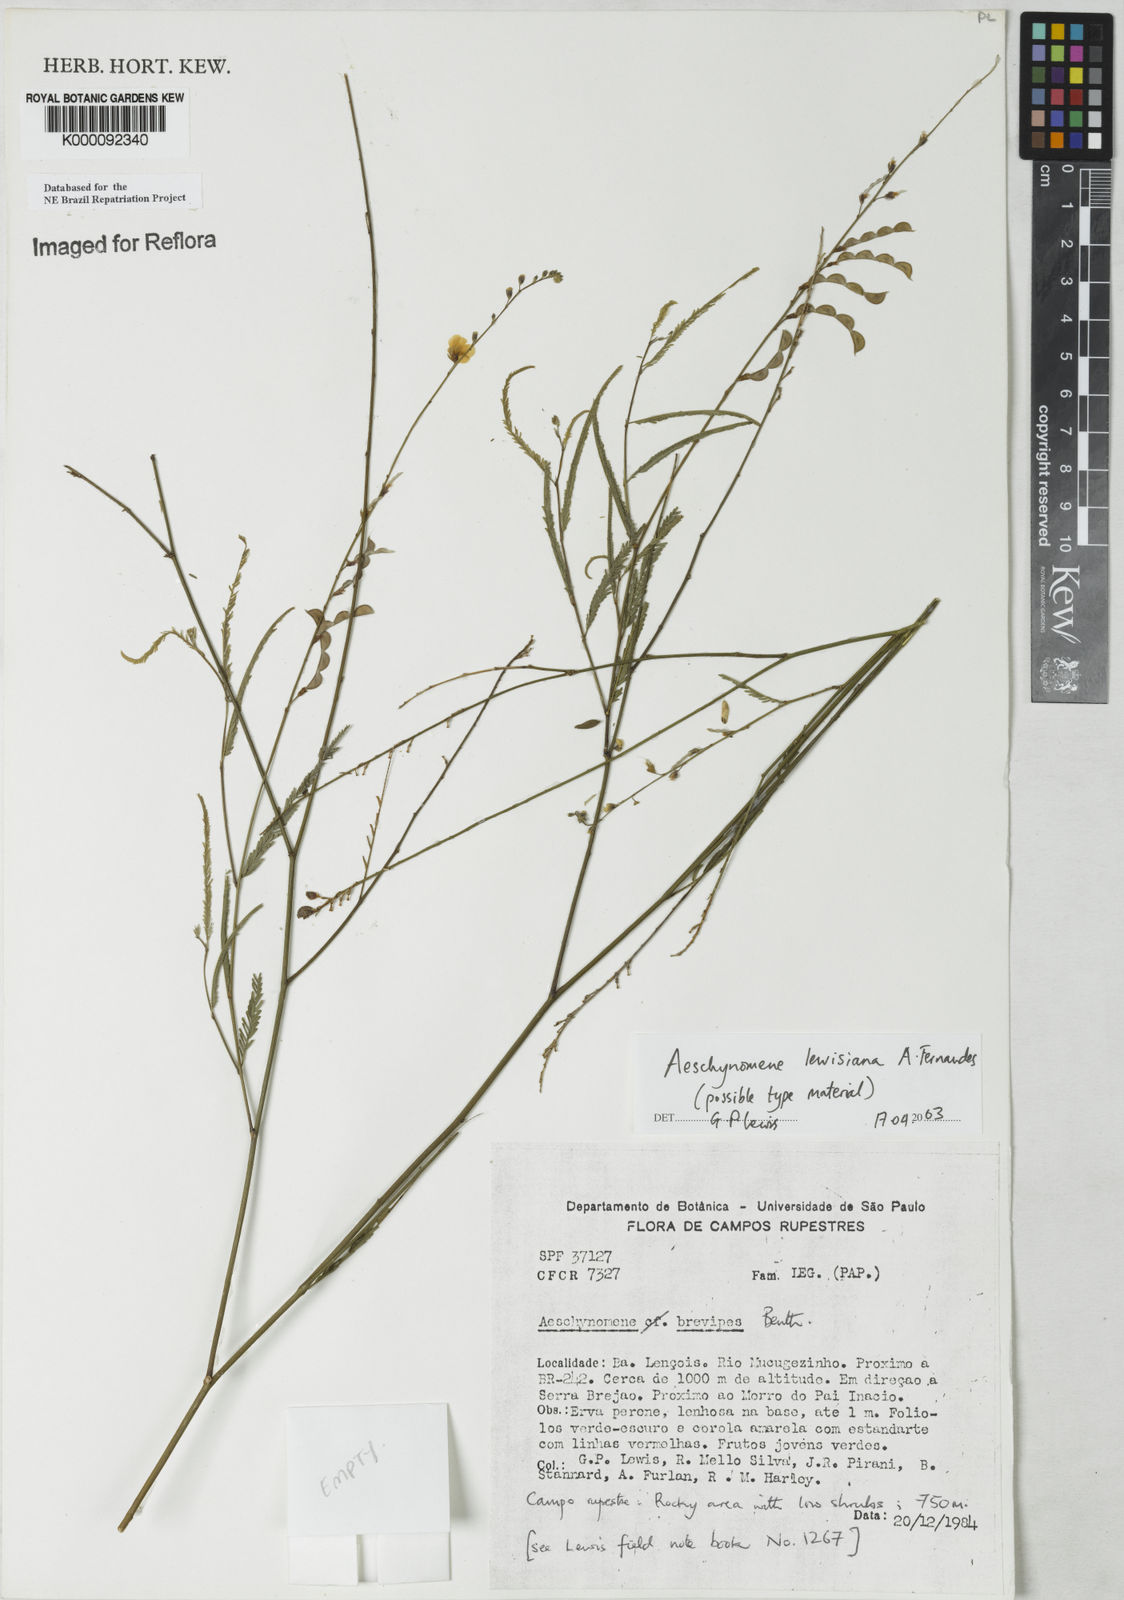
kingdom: Plantae
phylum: Tracheophyta
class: Magnoliopsida
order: Fabales
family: Fabaceae
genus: Ctenodon
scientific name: Ctenodon lewisianus
